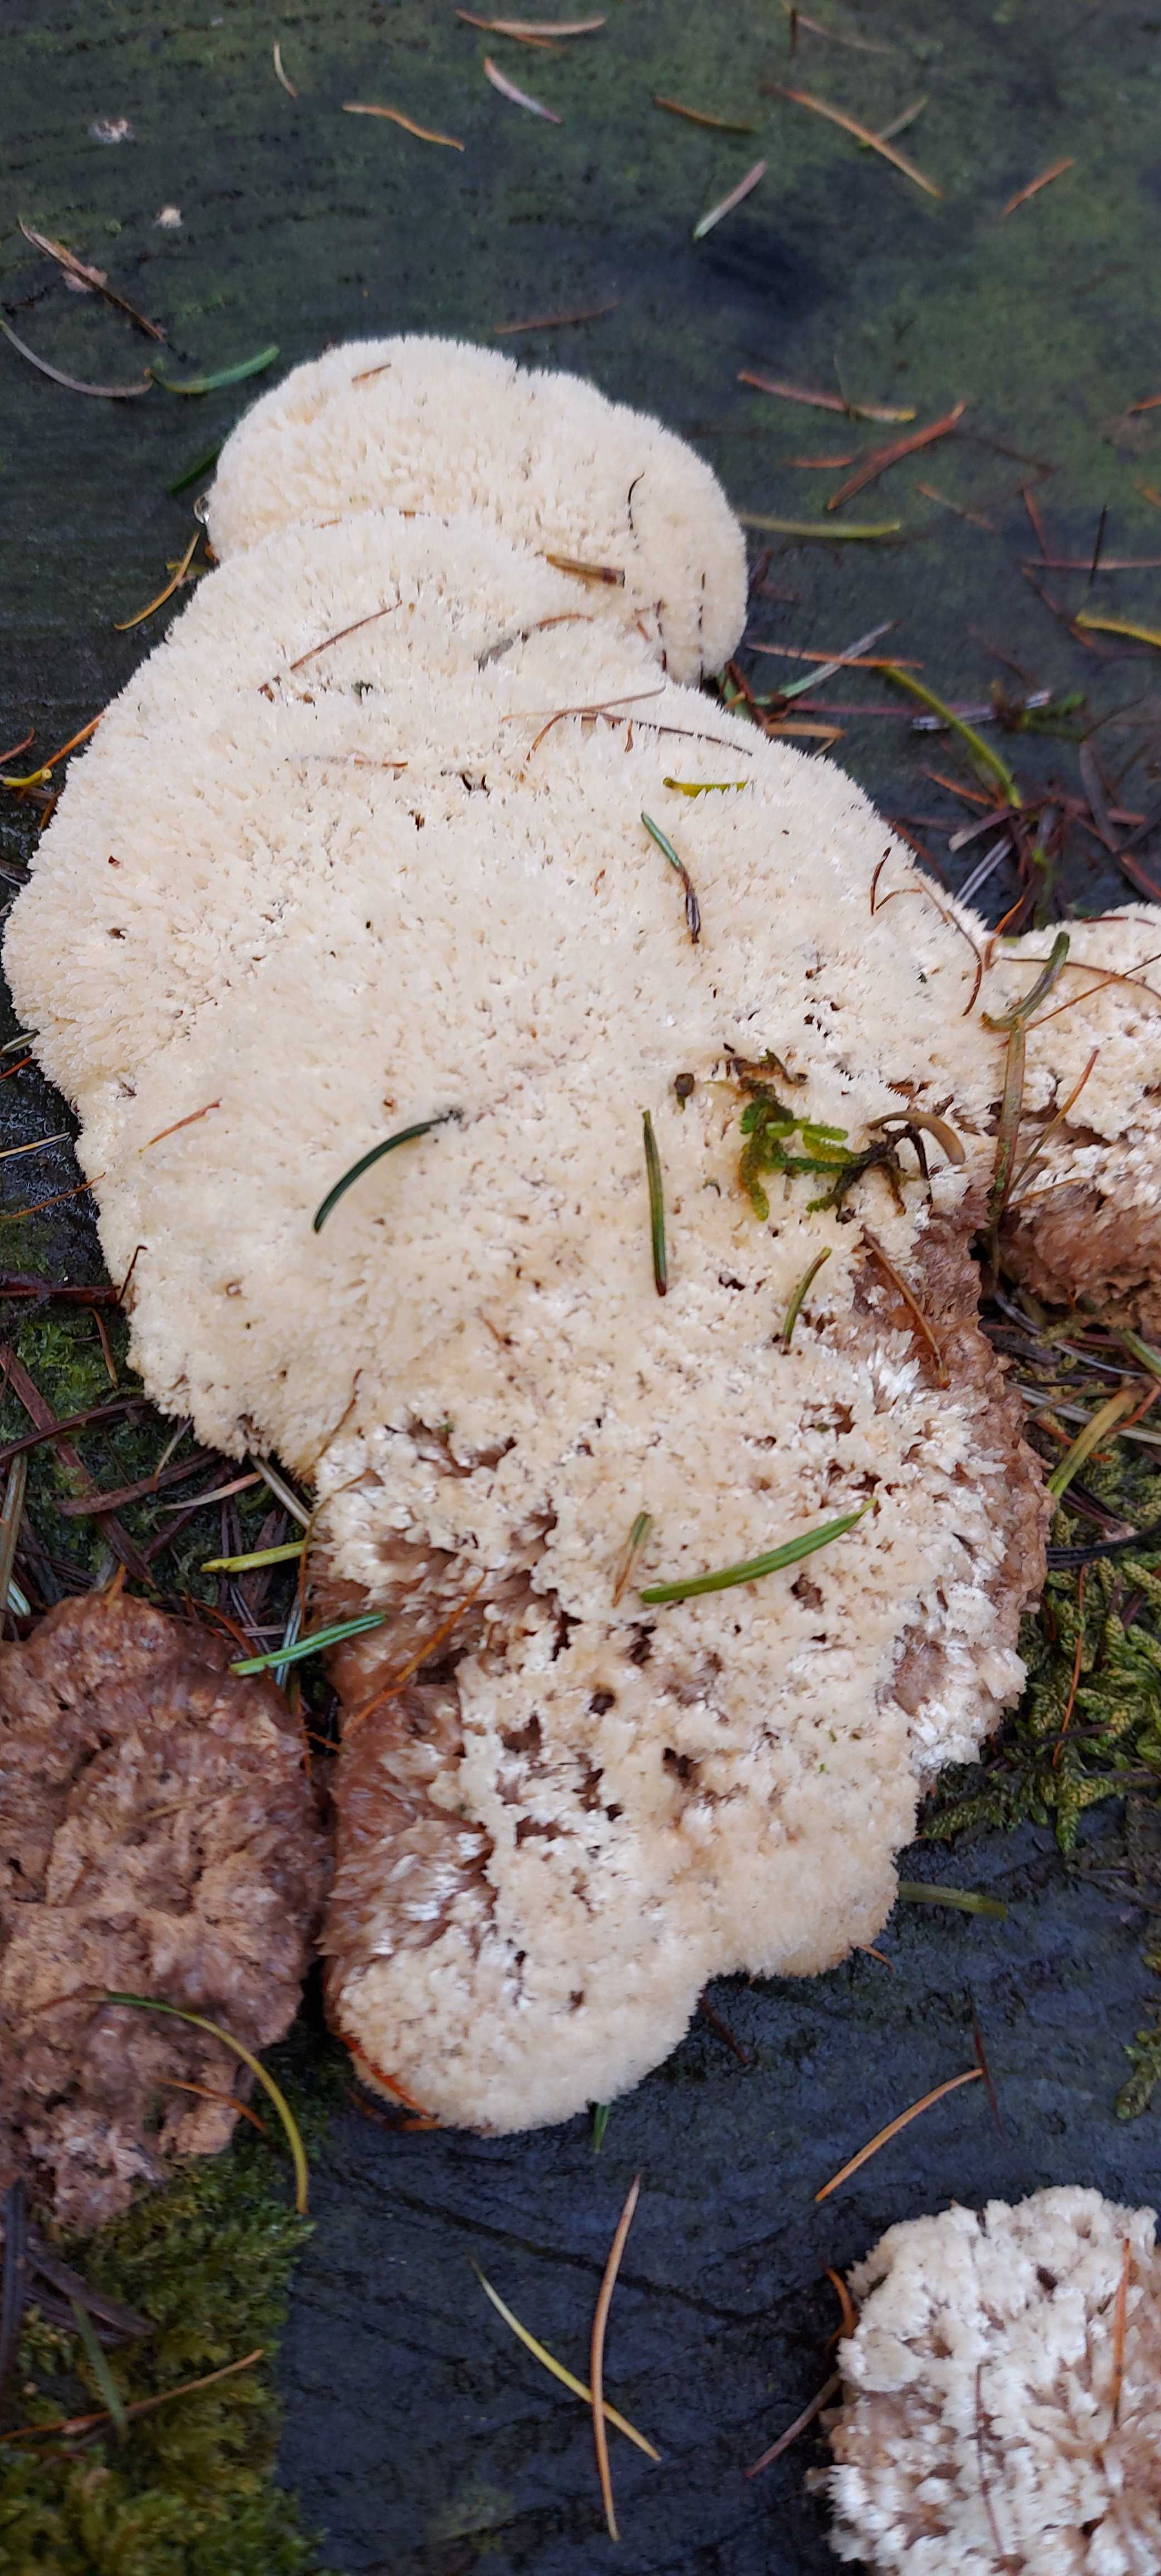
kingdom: Fungi
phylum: Basidiomycota
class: Agaricomycetes
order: Polyporales
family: Dacryobolaceae
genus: Postia
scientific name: Postia ptychogaster
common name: støvende kødporesvamp
